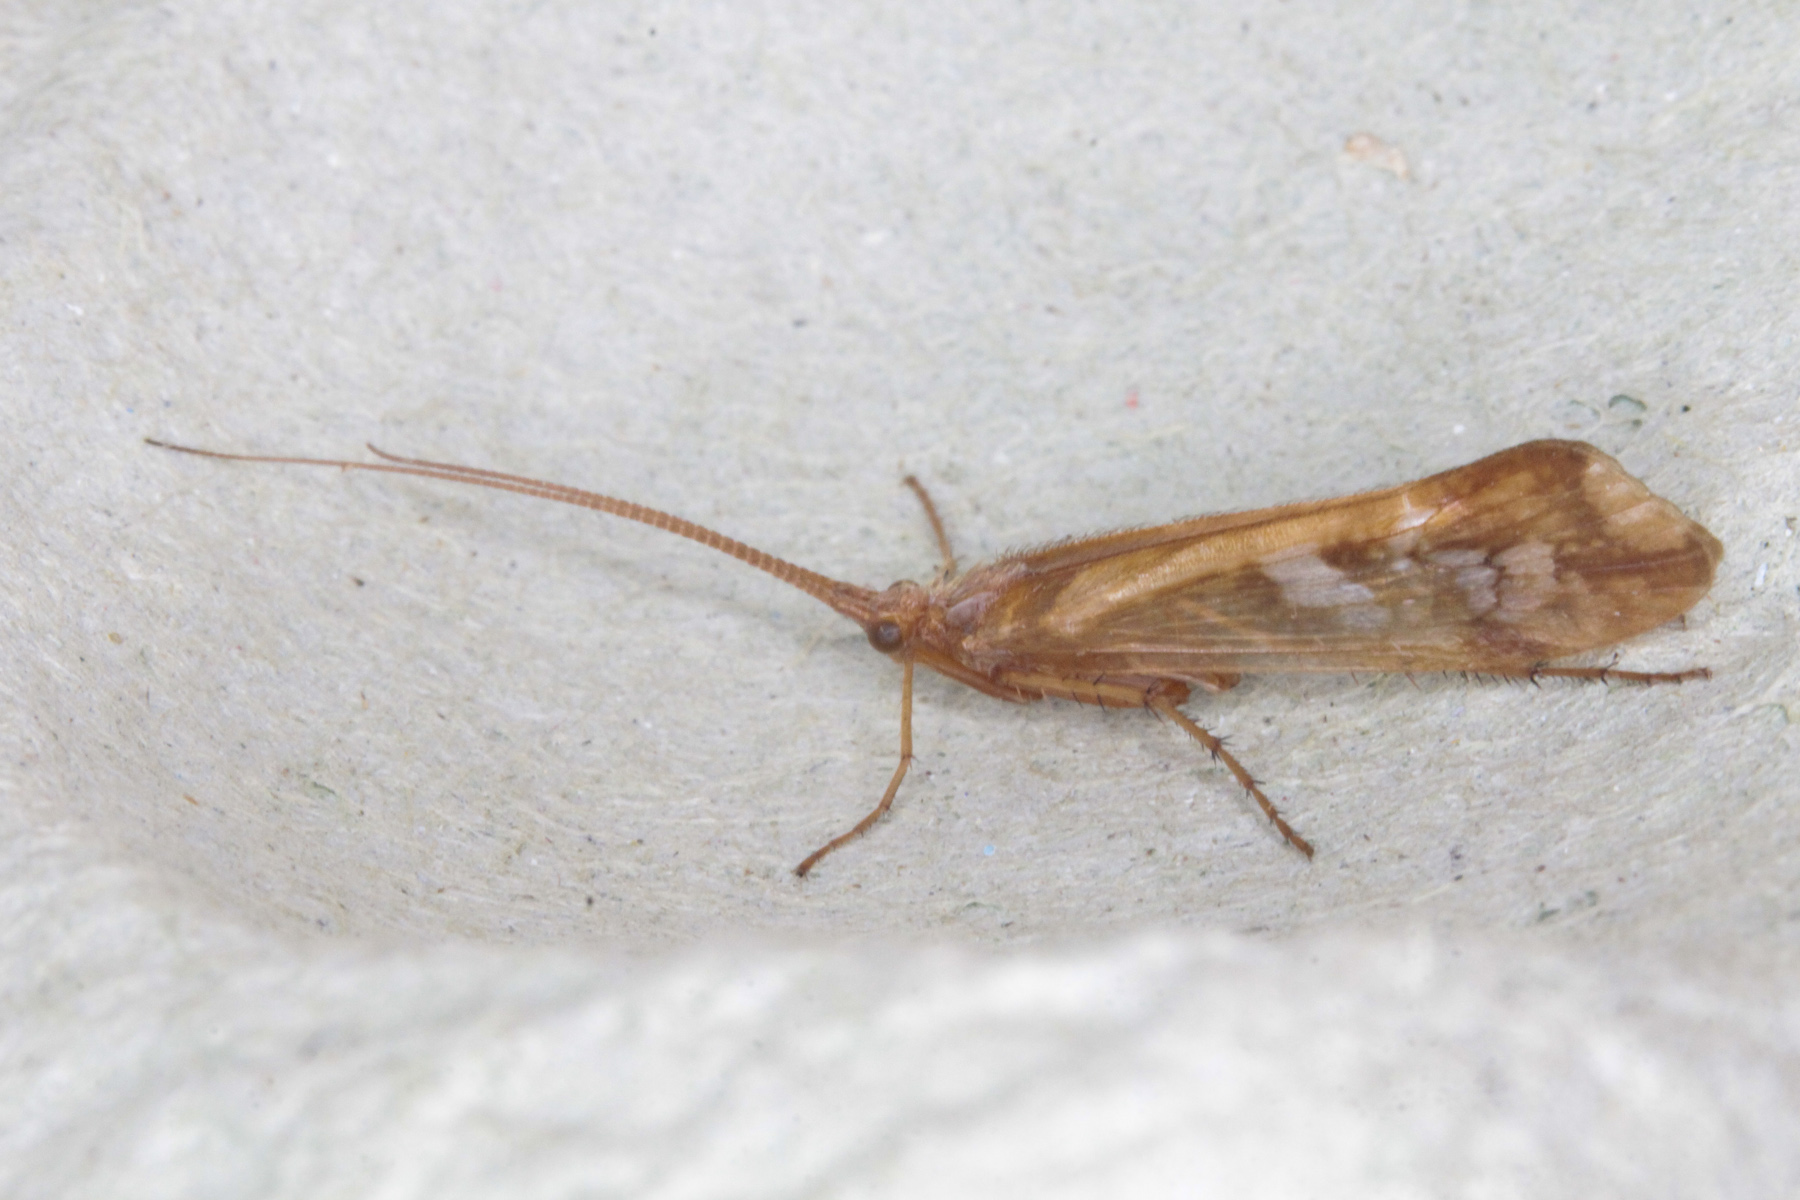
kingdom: Animalia
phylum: Arthropoda
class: Insecta
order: Trichoptera
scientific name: Trichoptera
